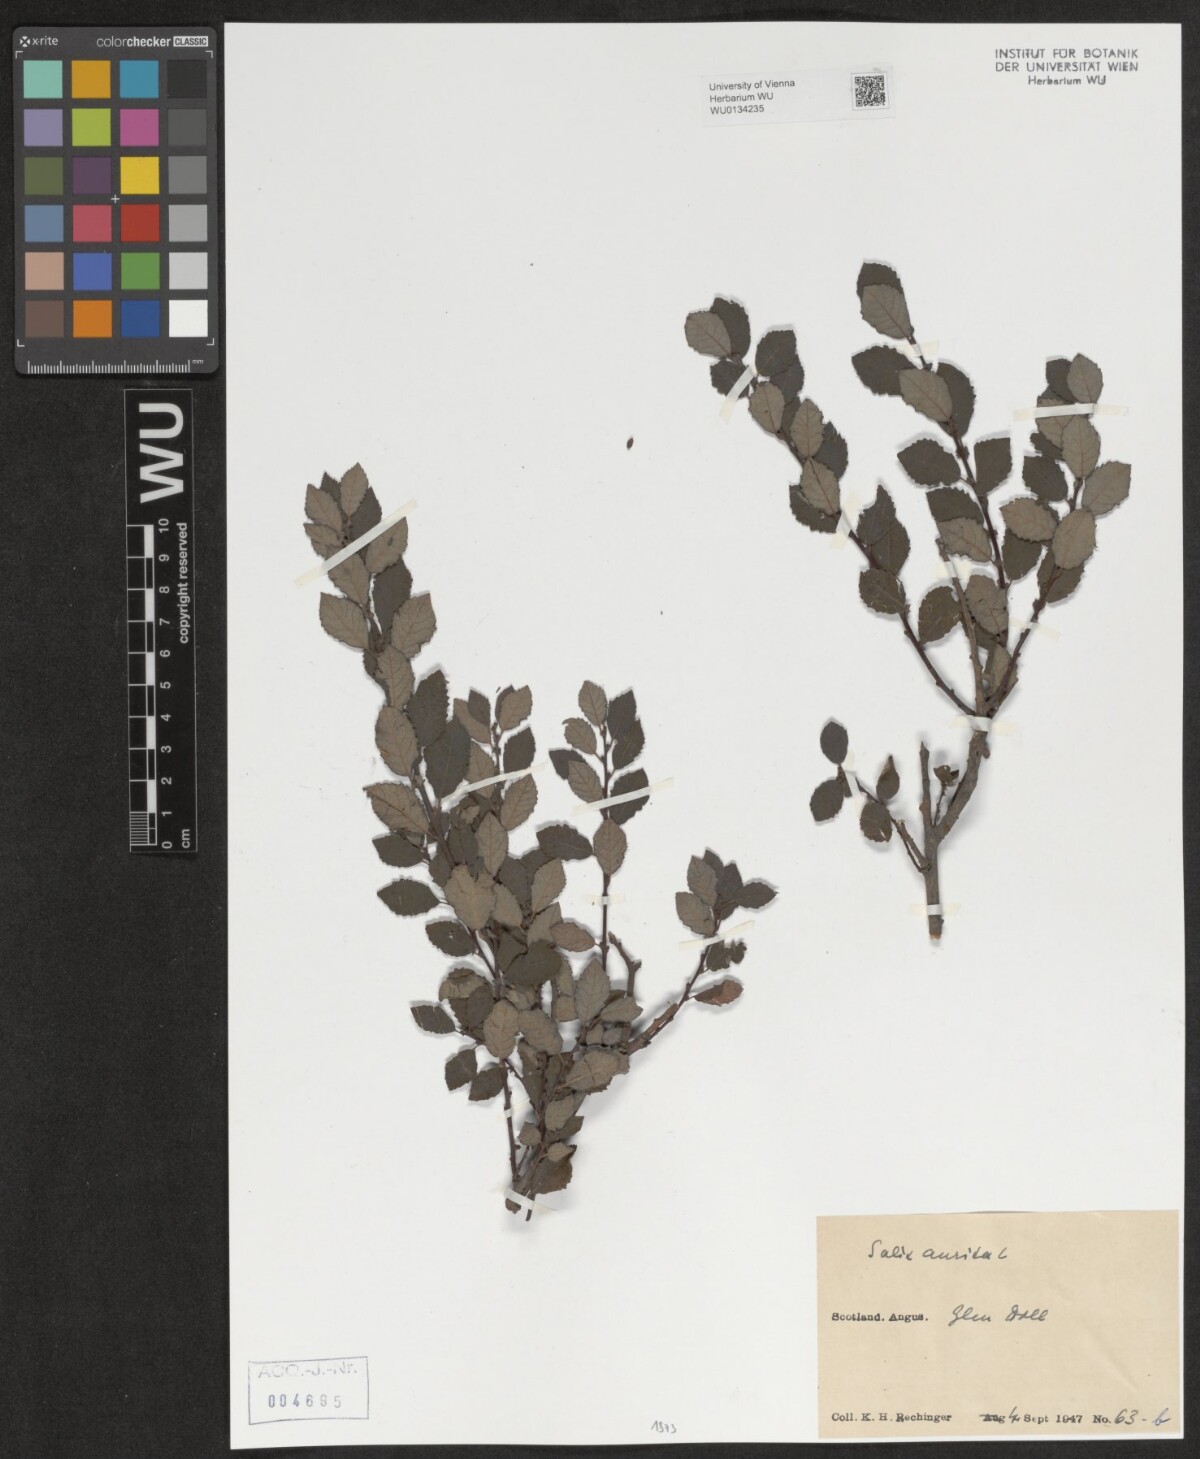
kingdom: Plantae
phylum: Tracheophyta
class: Magnoliopsida
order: Malpighiales
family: Salicaceae
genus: Salix
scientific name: Salix aurita
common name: Eared willow
